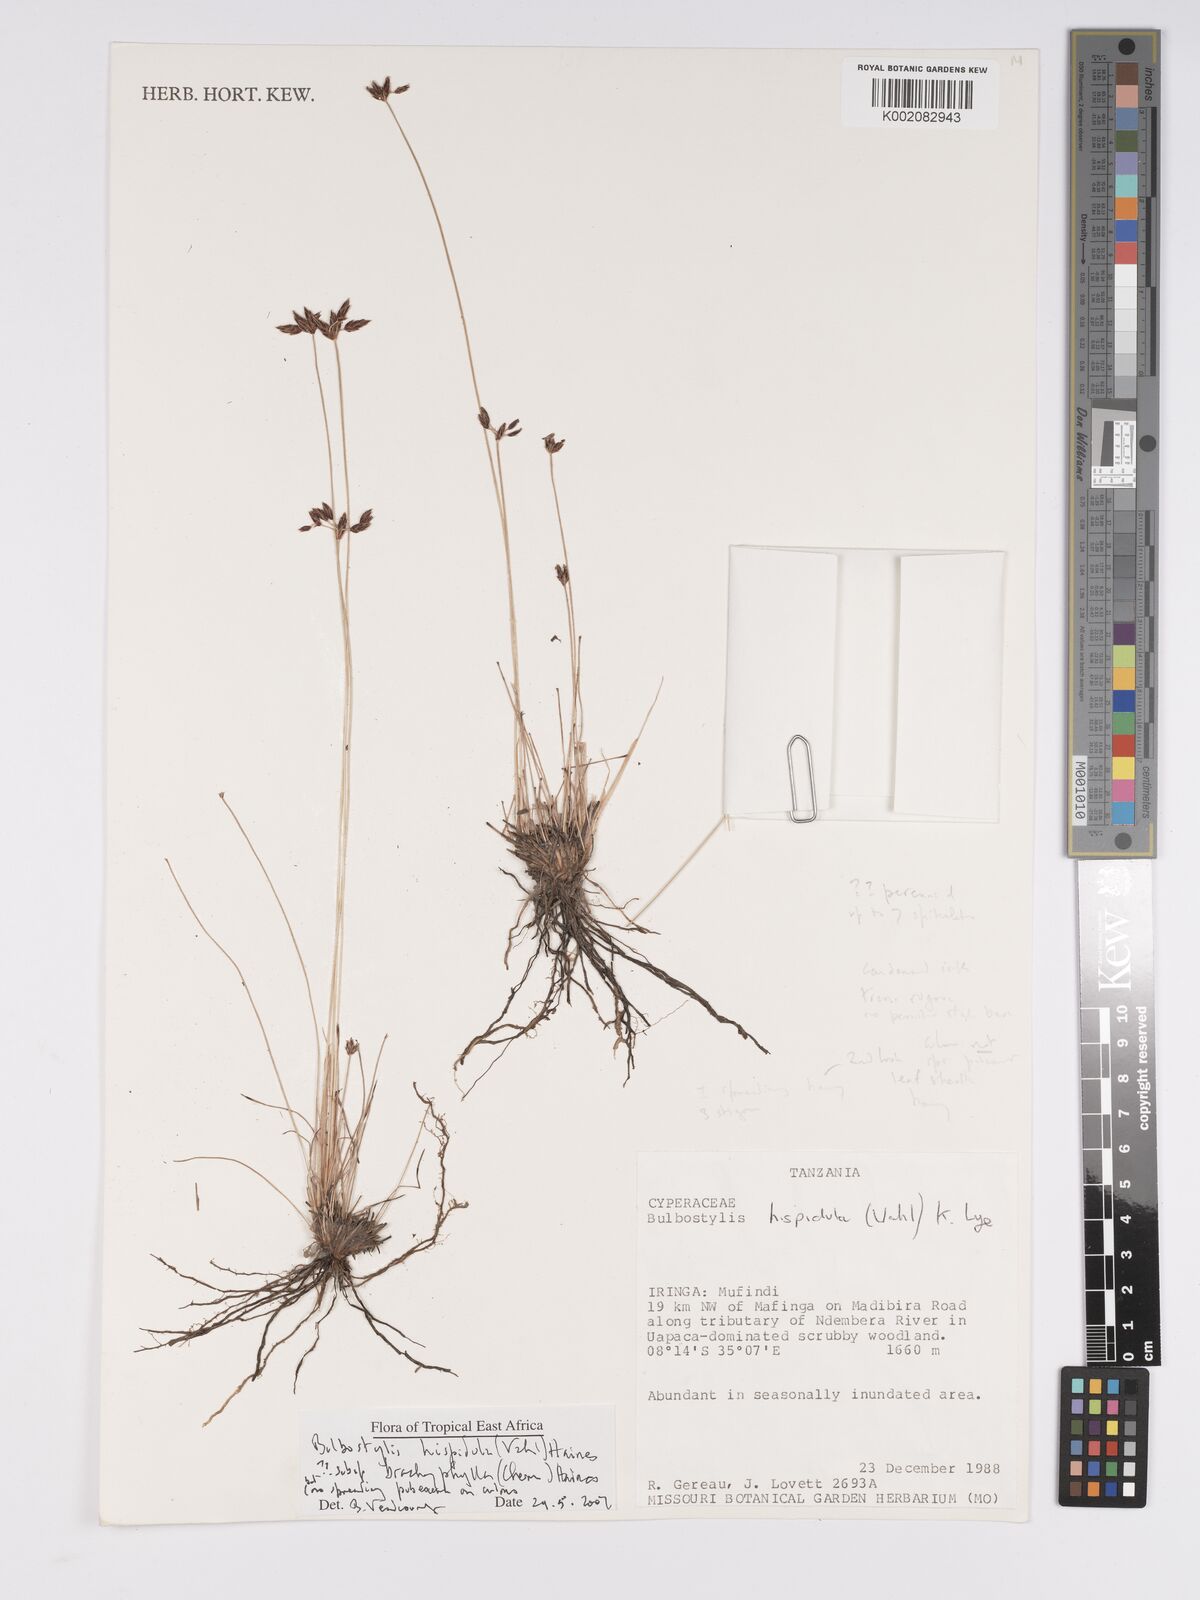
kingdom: Plantae
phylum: Tracheophyta
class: Liliopsida
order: Poales
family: Cyperaceae
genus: Bulbostylis
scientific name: Bulbostylis hispidula
